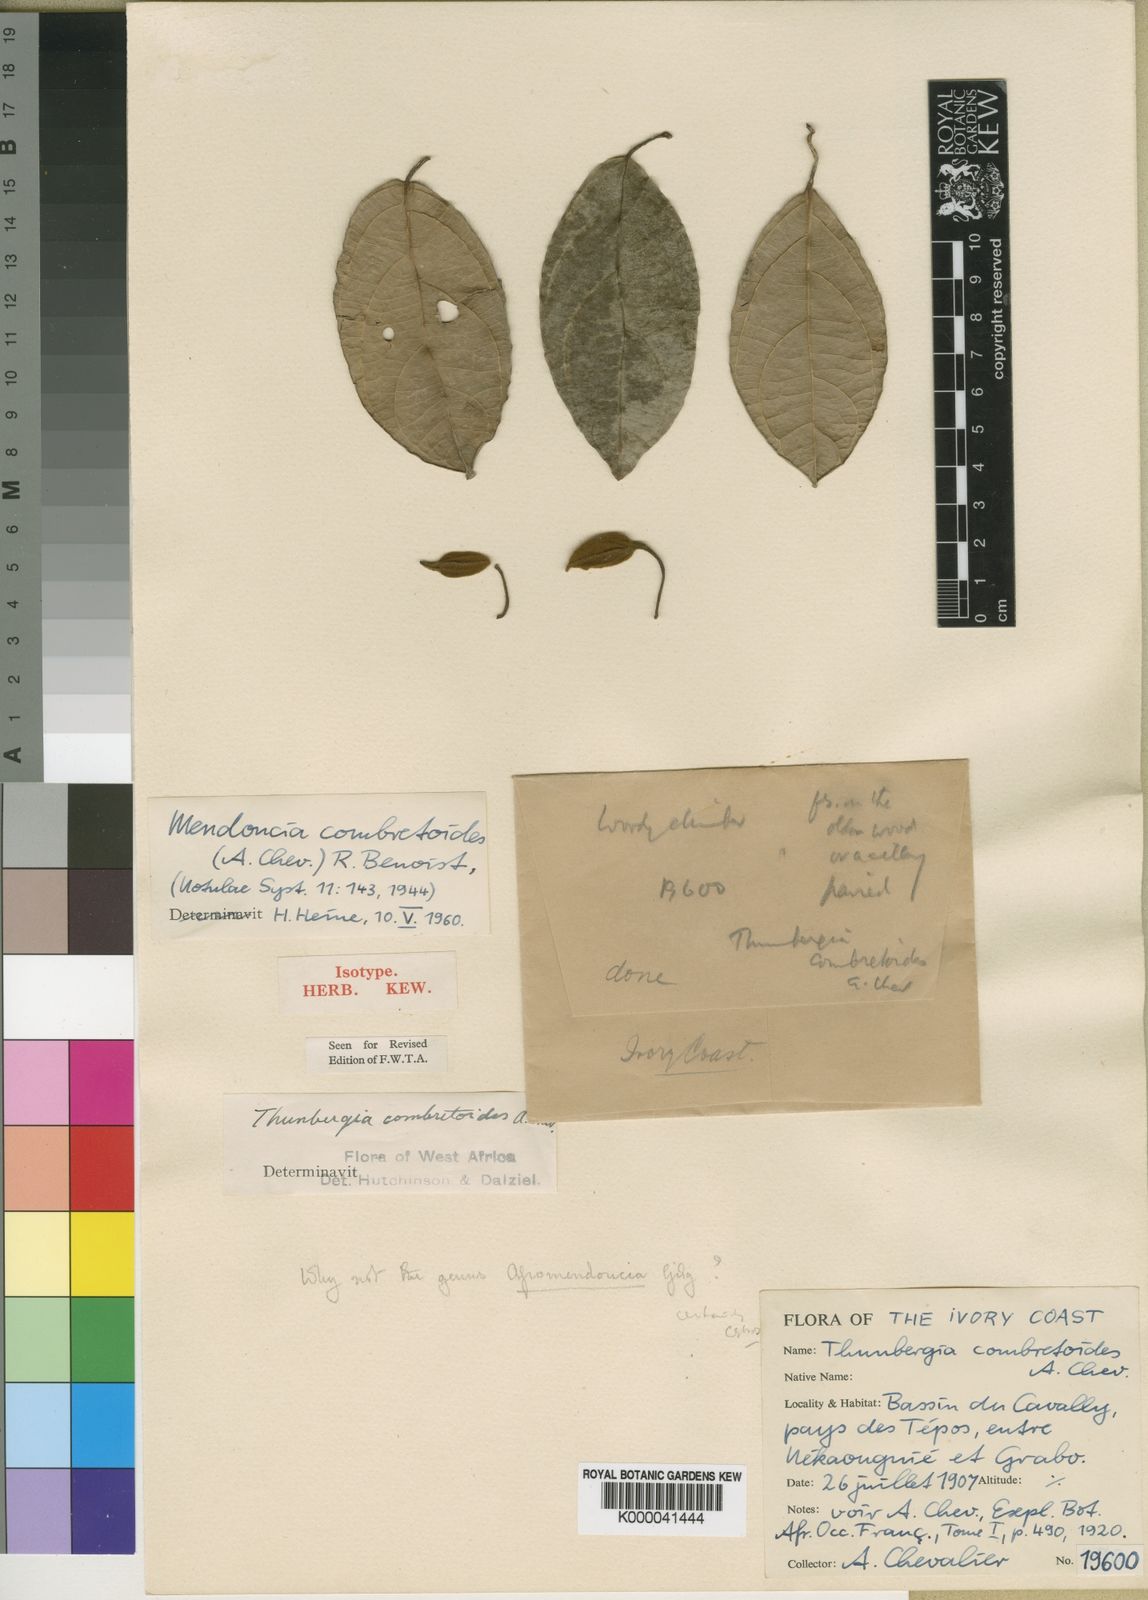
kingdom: Plantae
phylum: Tracheophyta
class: Magnoliopsida
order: Lamiales
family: Acanthaceae
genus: Mendoncia
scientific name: Mendoncia combretoides
